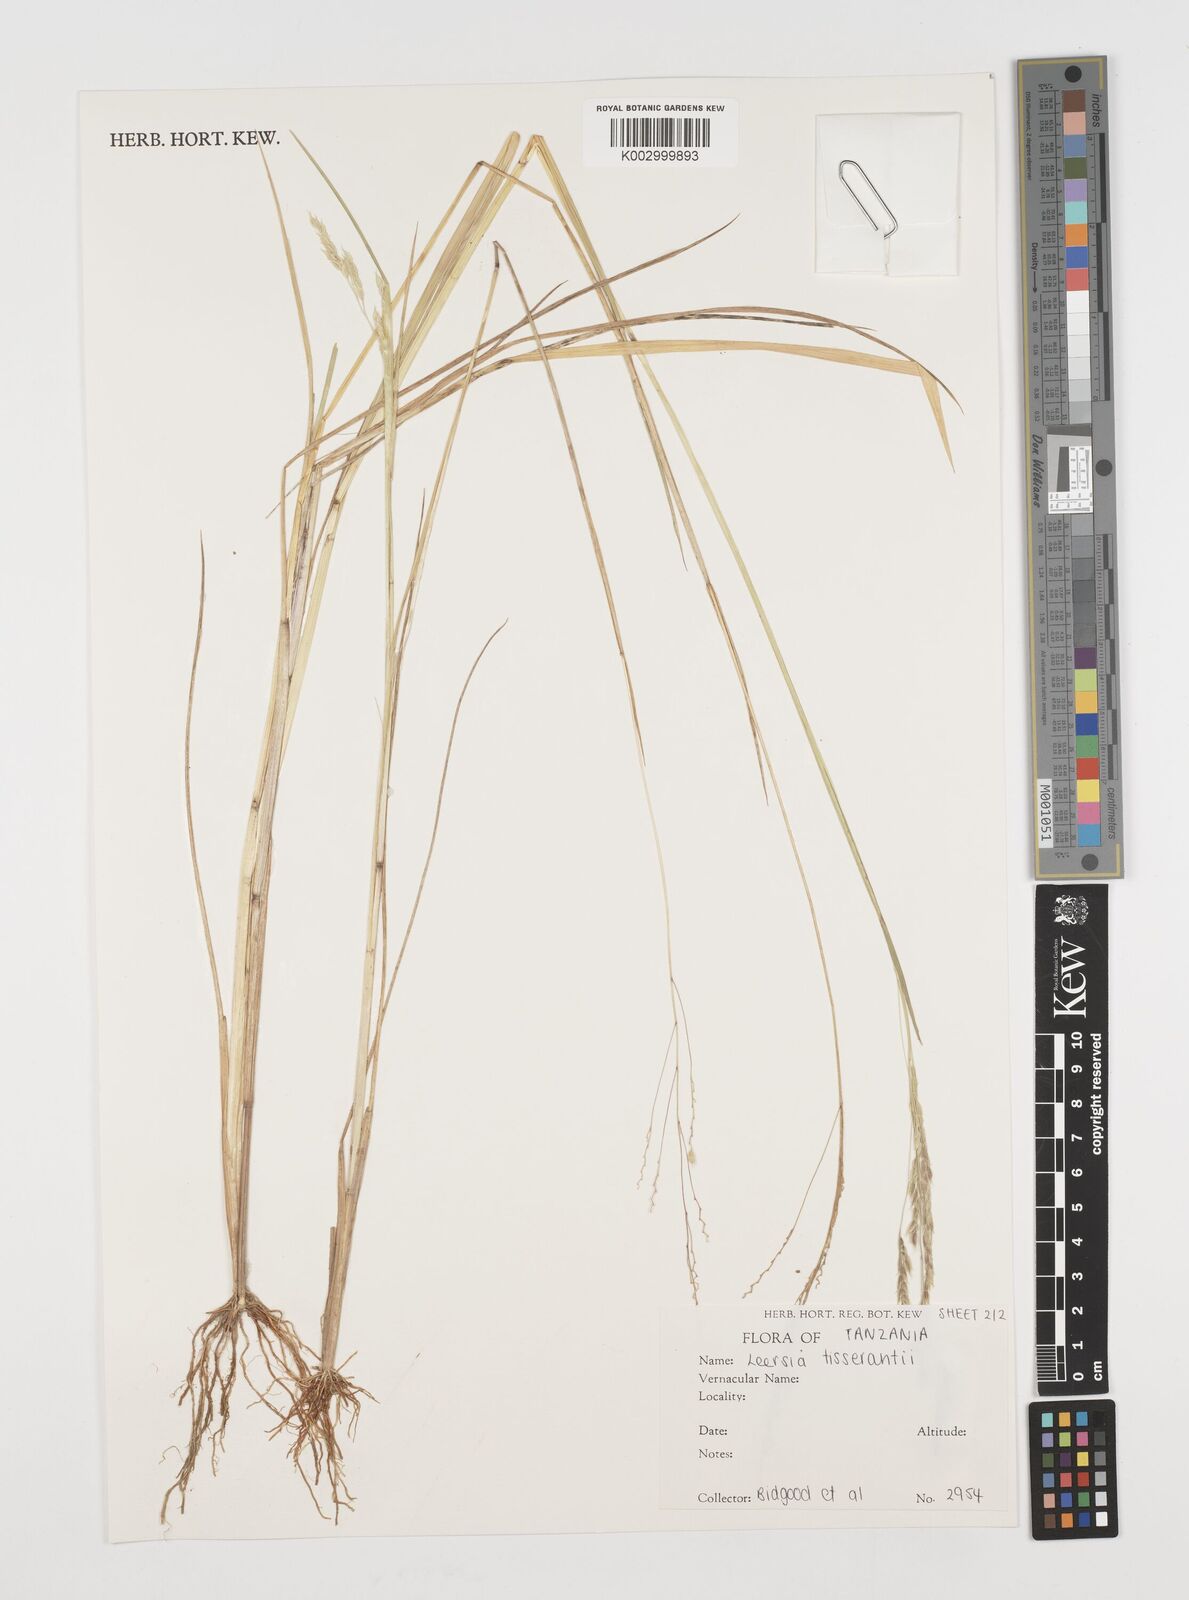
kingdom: Plantae
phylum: Tracheophyta
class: Liliopsida
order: Poales
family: Poaceae
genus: Leersia
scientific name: Leersia angustifolia
